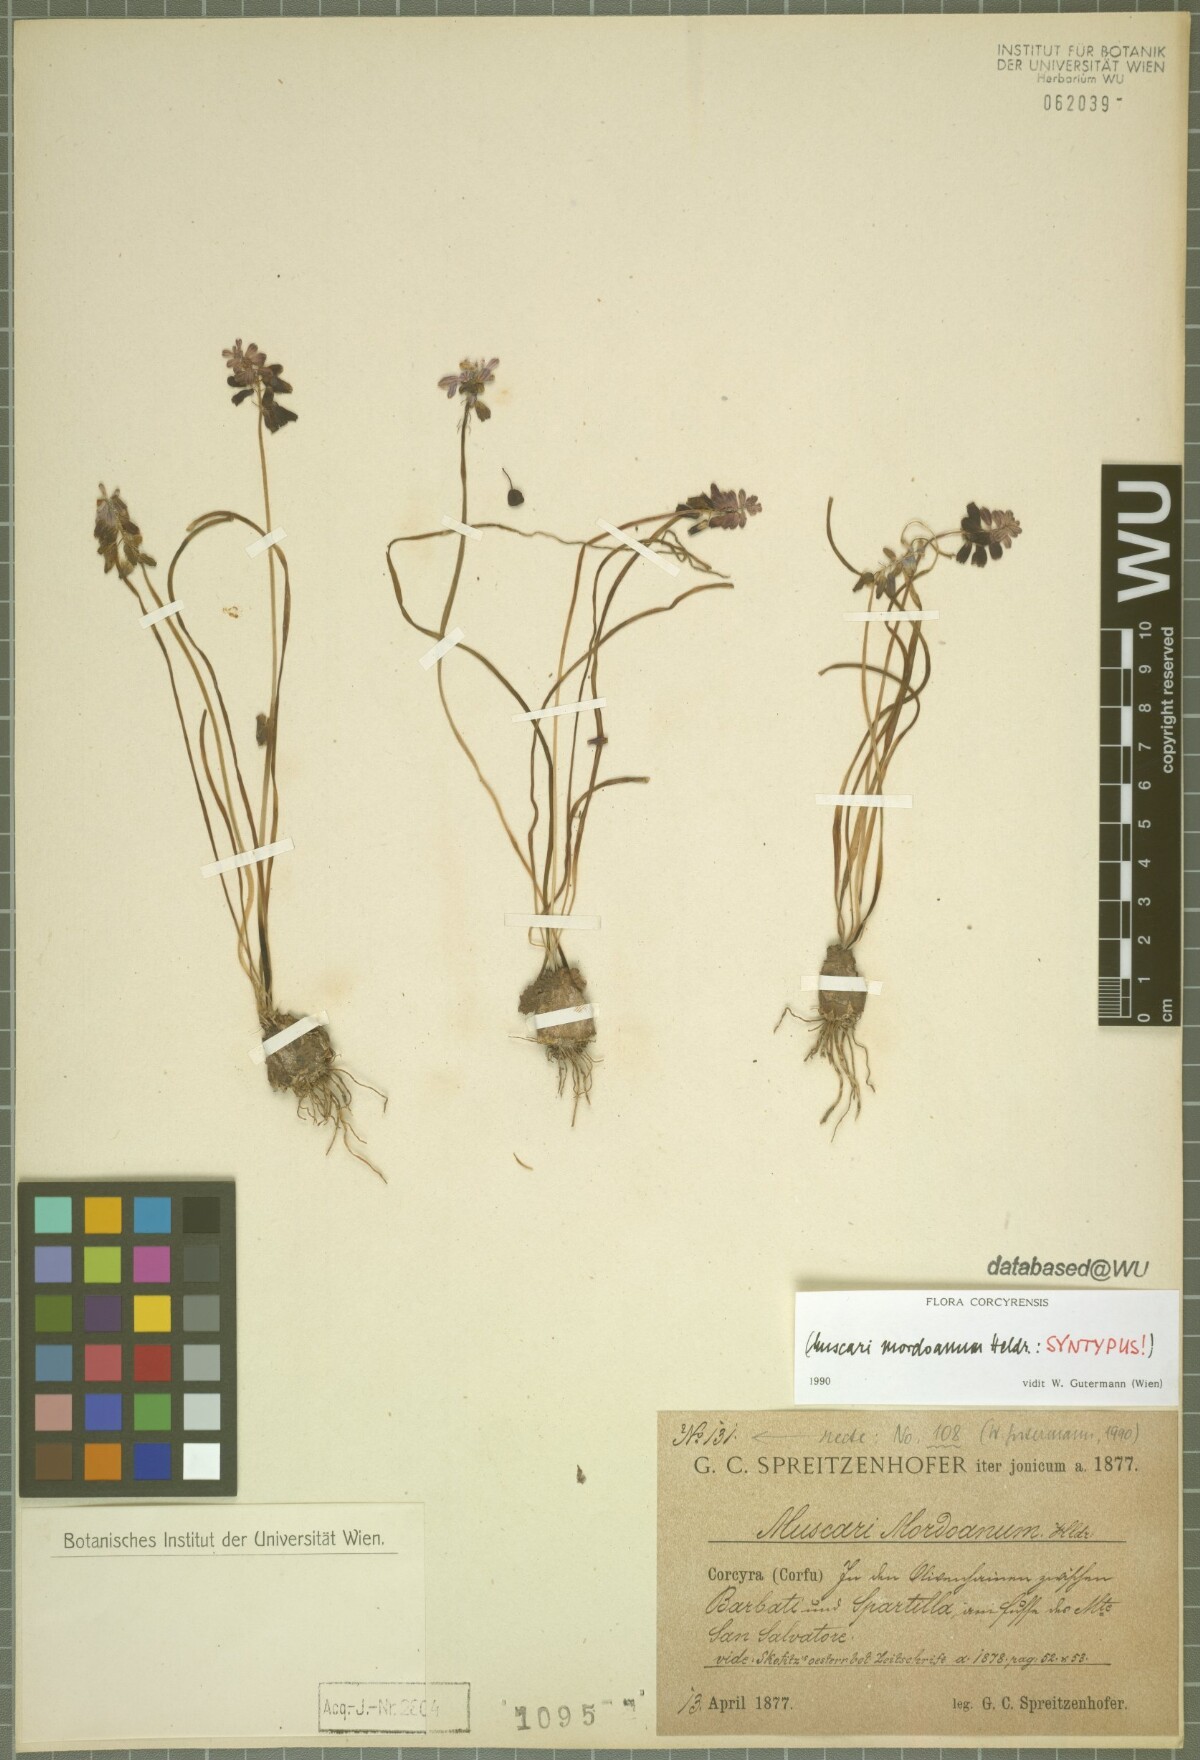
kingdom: Plantae
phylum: Tracheophyta
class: Liliopsida
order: Asparagales
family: Asparagaceae
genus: Muscari
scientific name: Muscari neglectum
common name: Grape-hyacinth
